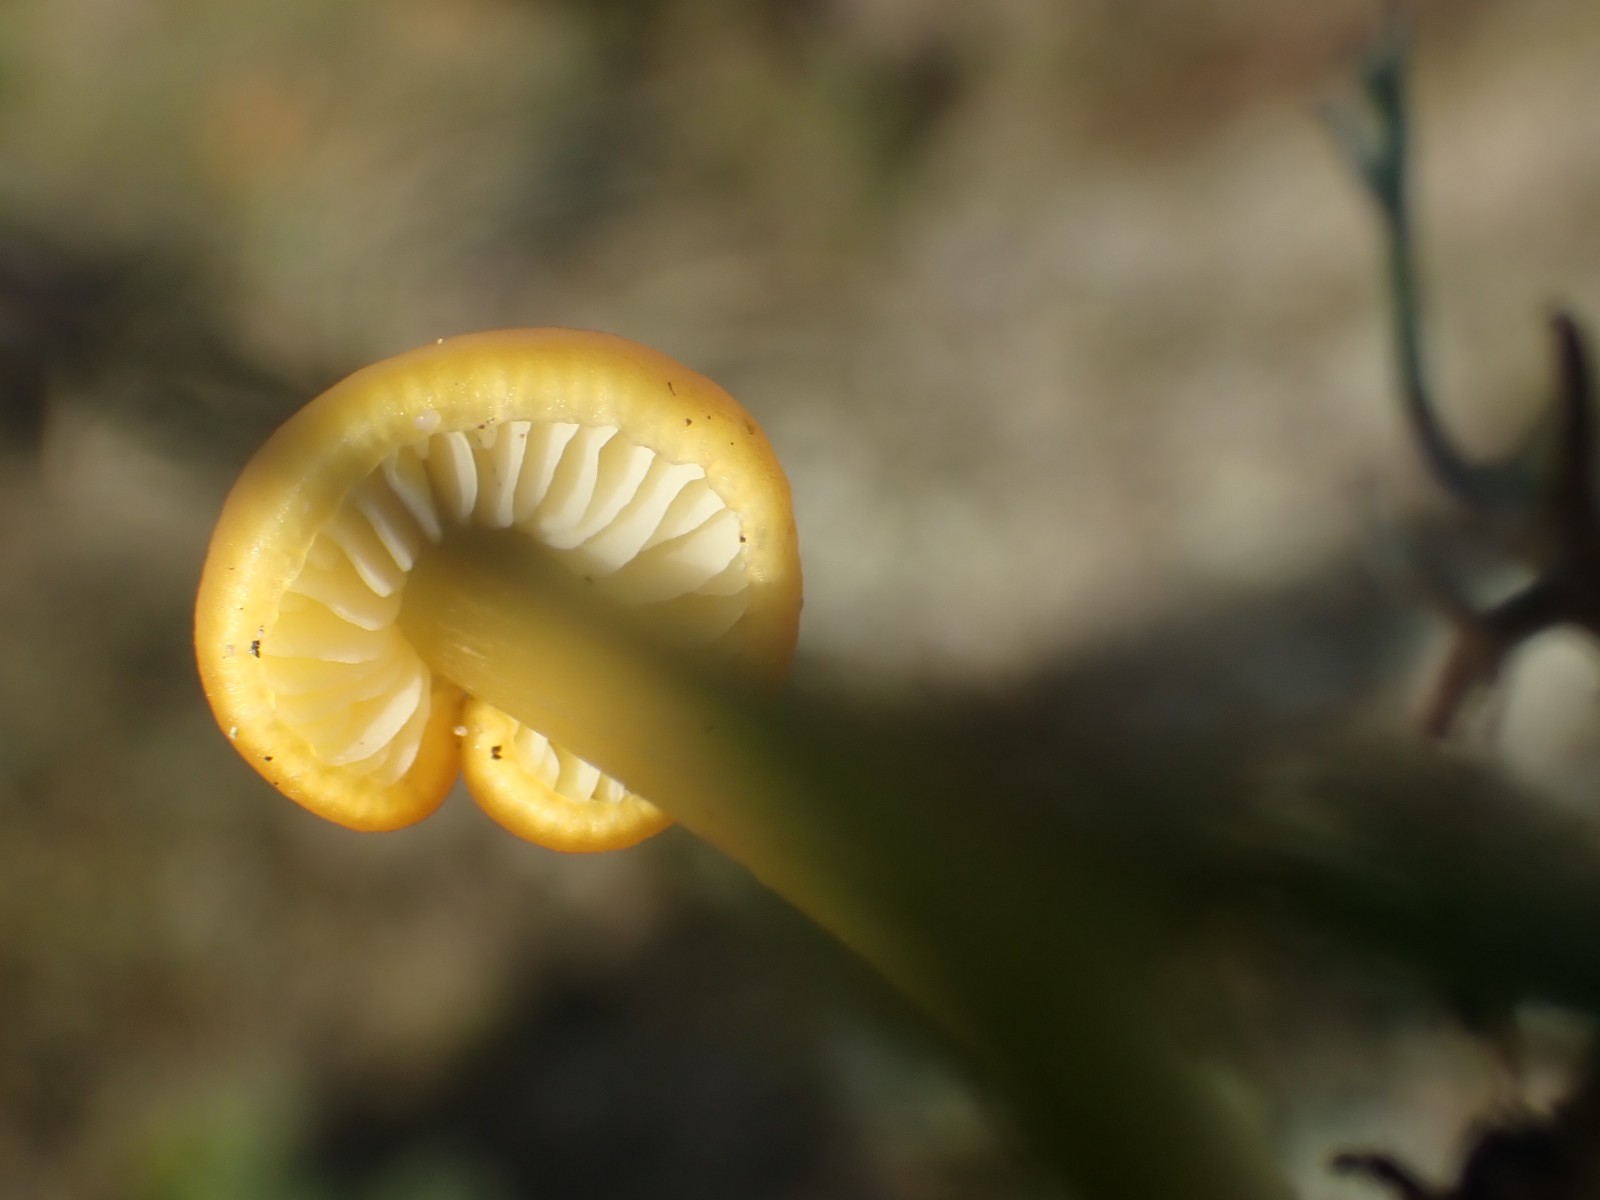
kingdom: Fungi
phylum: Basidiomycota
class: Agaricomycetes
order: Agaricales
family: Hygrophoraceae
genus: Hygrocybe
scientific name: Hygrocybe conica
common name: kegle-vokshat
